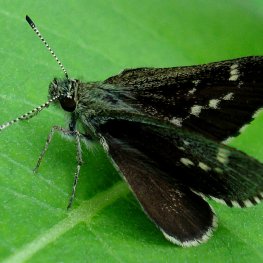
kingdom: Animalia
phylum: Arthropoda
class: Insecta
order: Lepidoptera
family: Hesperiidae
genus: Mastor
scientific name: Mastor hegon
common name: Pepper and Salt Skipper
